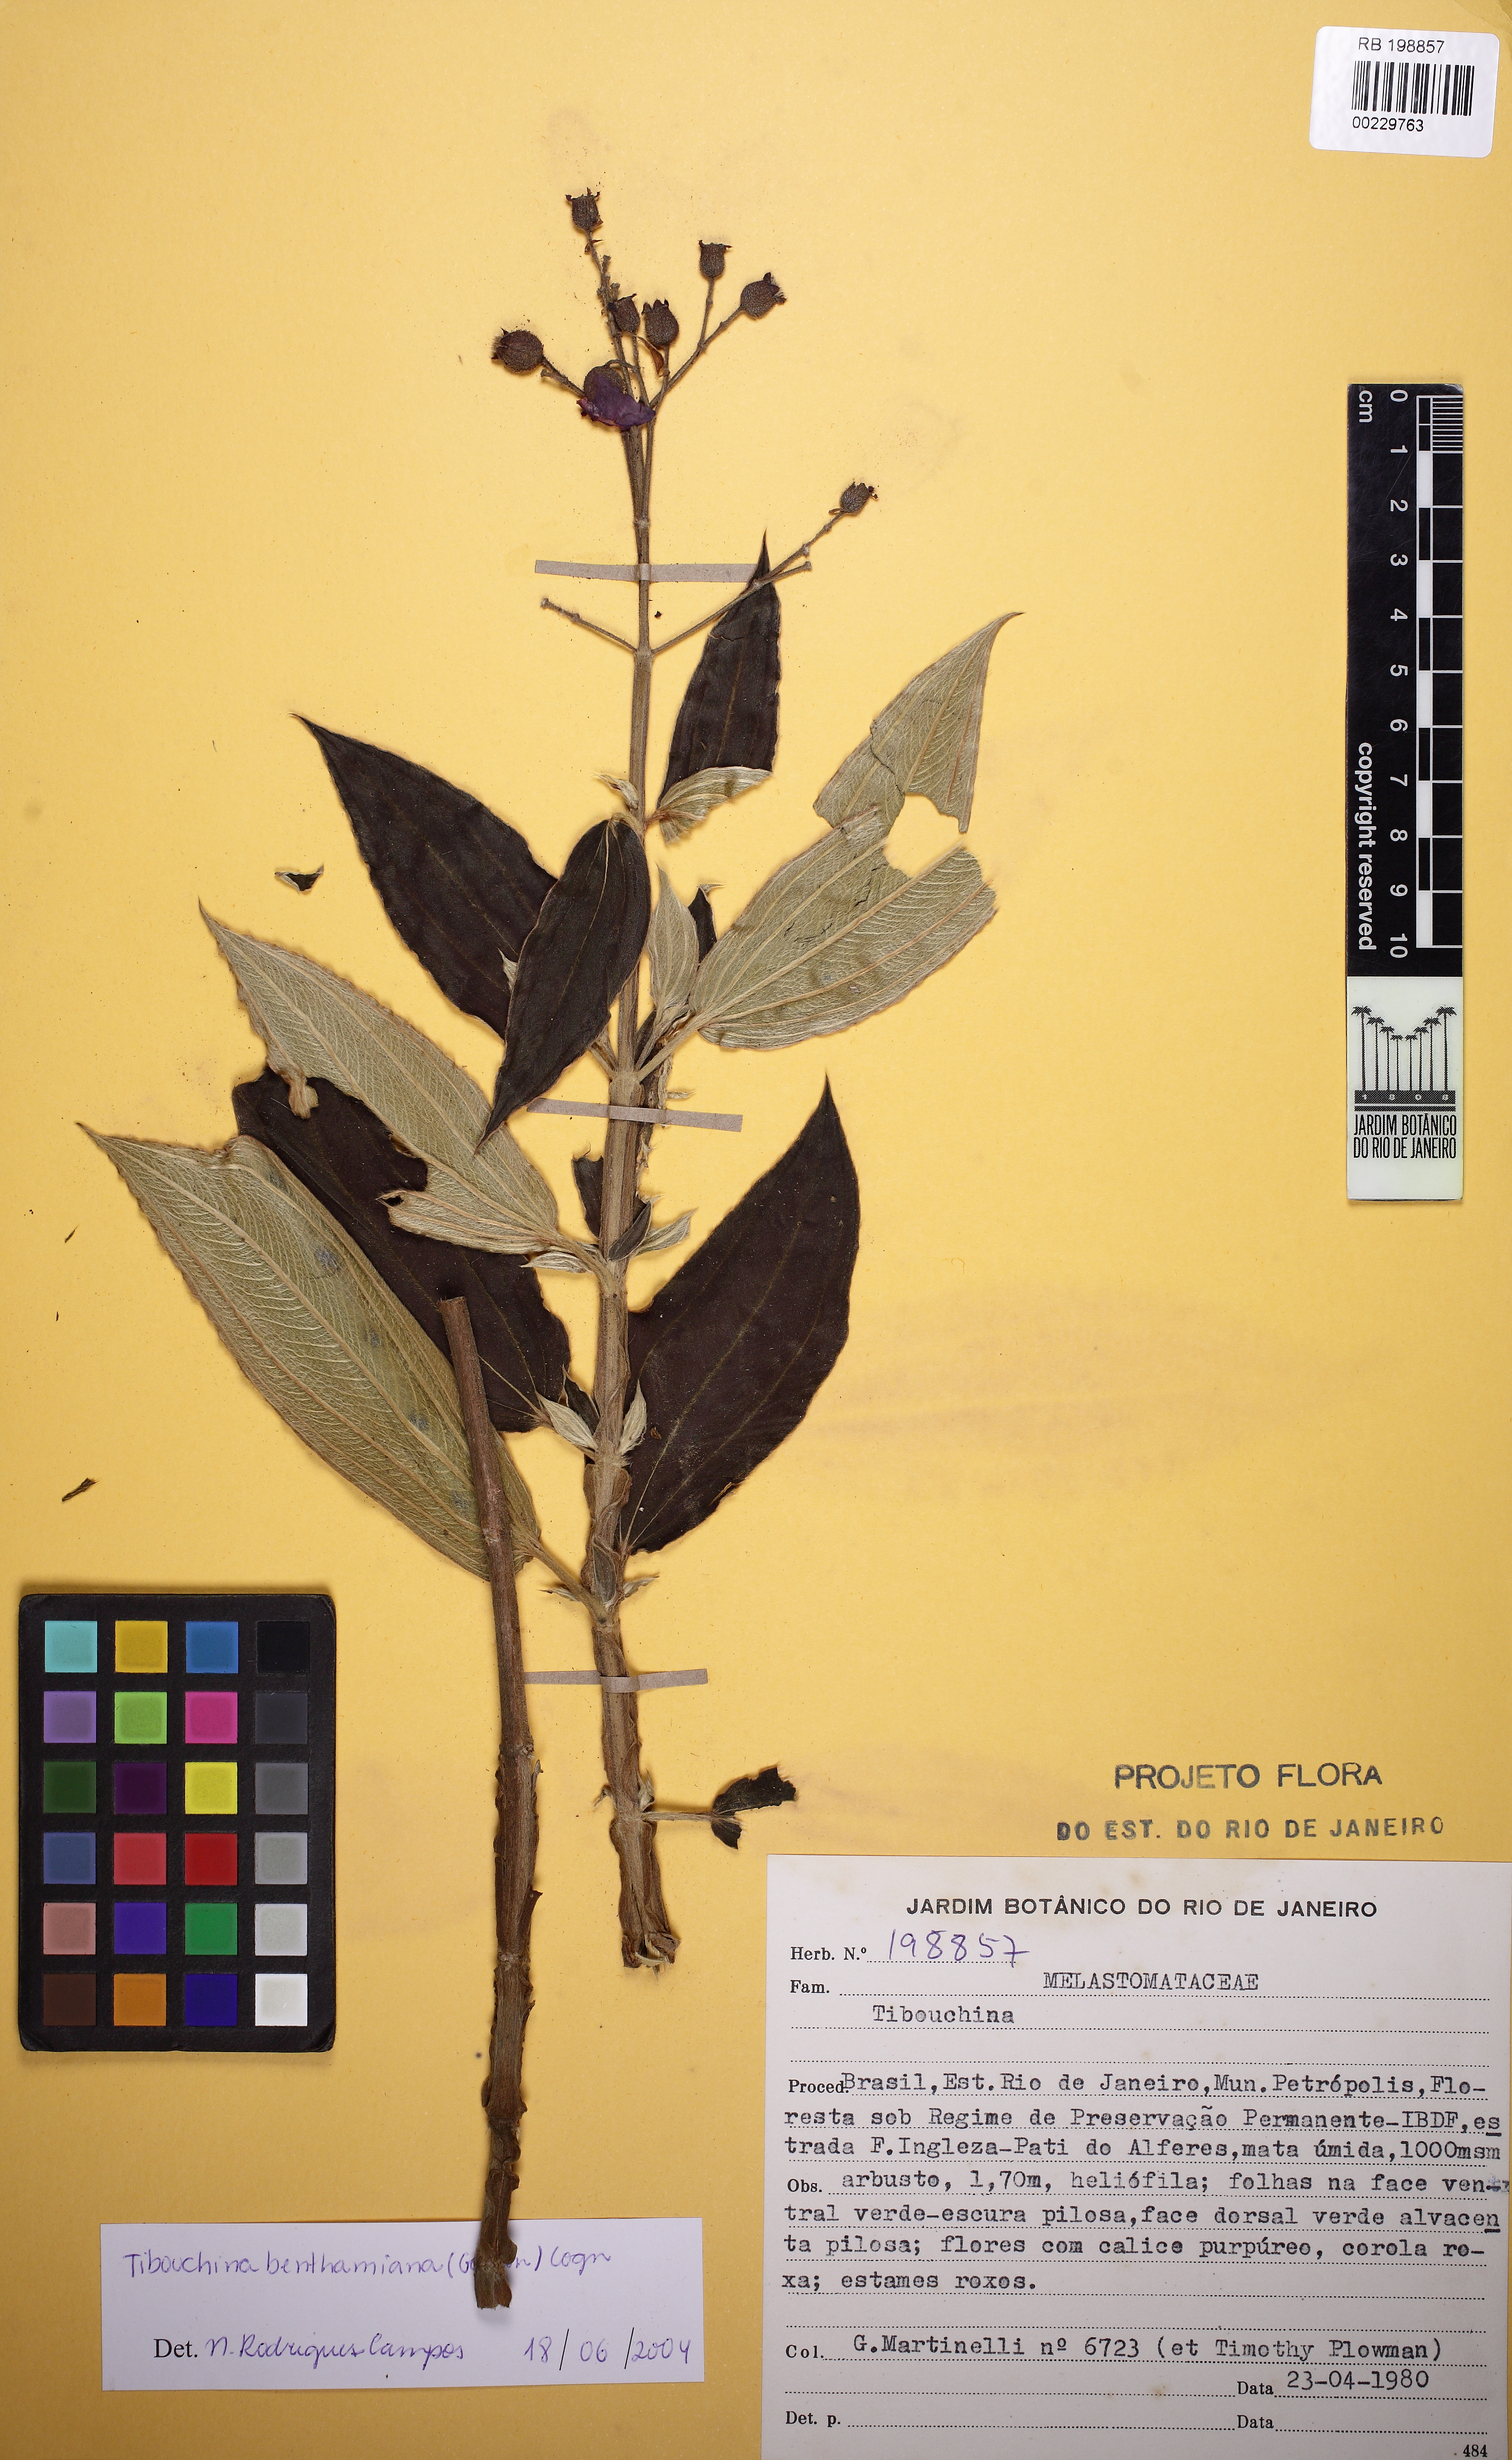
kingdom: Plantae
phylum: Tracheophyta
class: Magnoliopsida
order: Myrtales
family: Melastomataceae
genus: Pleroma
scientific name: Pleroma benthamianum
